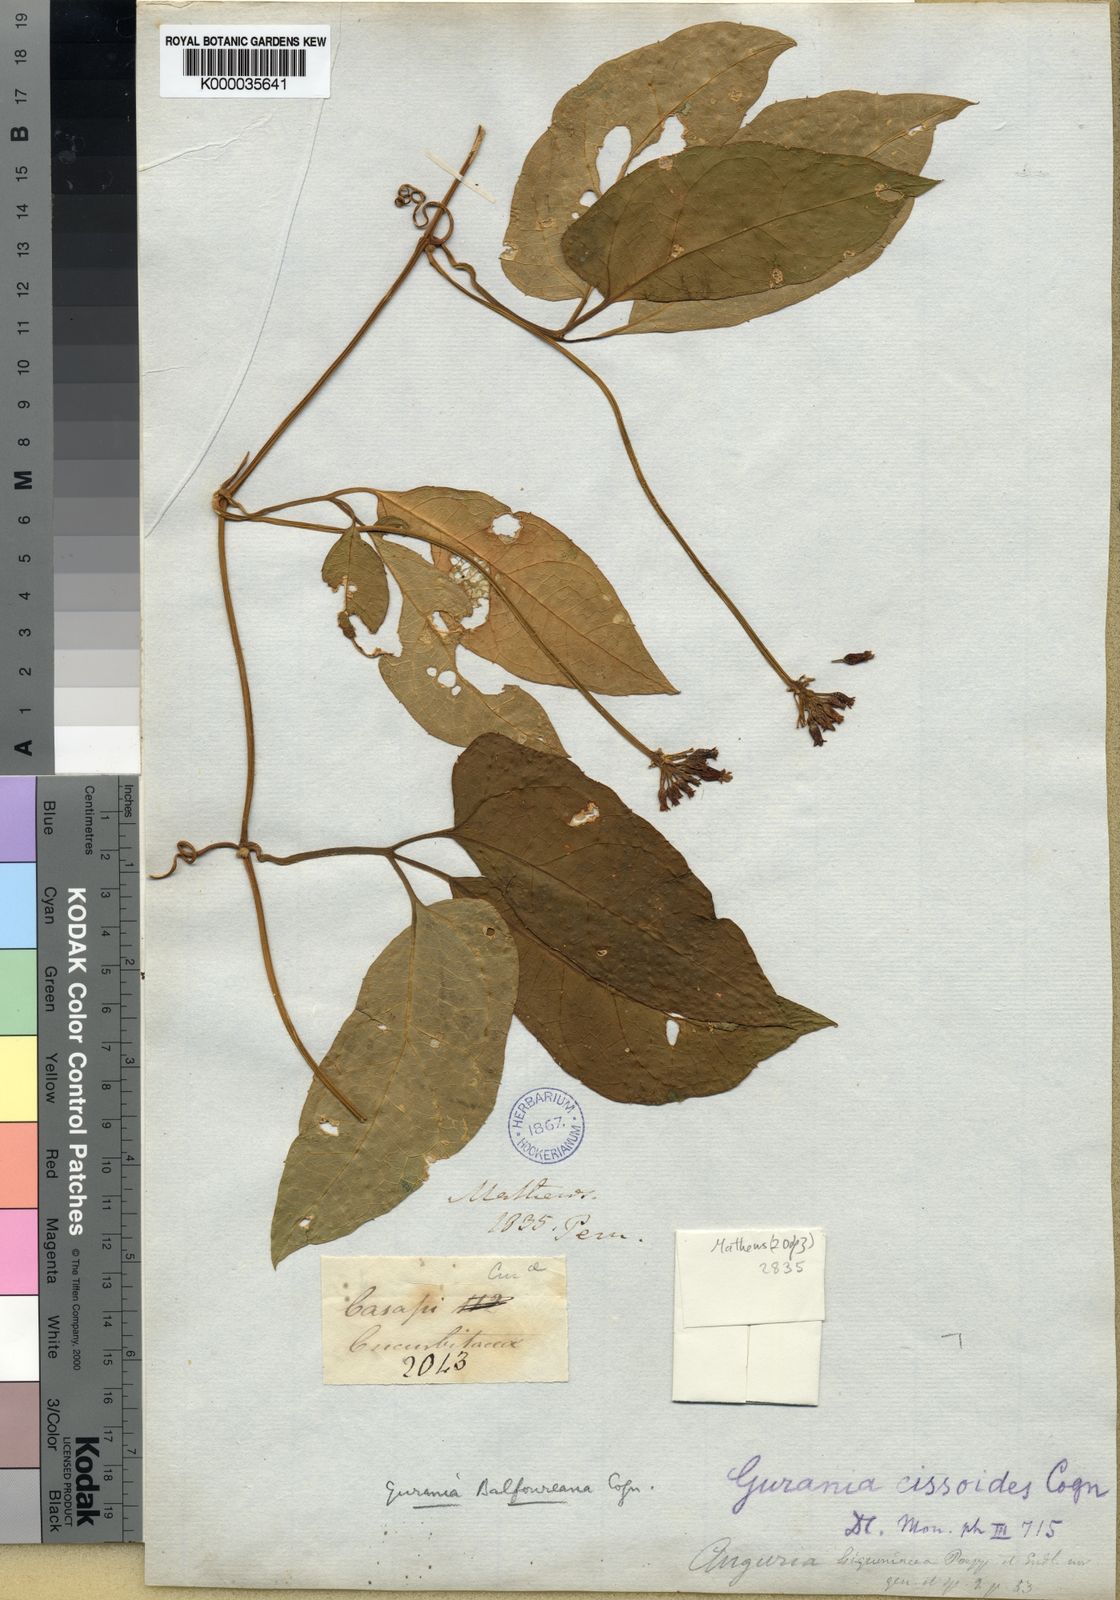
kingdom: Plantae
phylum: Tracheophyta
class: Magnoliopsida
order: Cucurbitales
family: Cucurbitaceae
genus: Gurania
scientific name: Gurania bignoniacea
